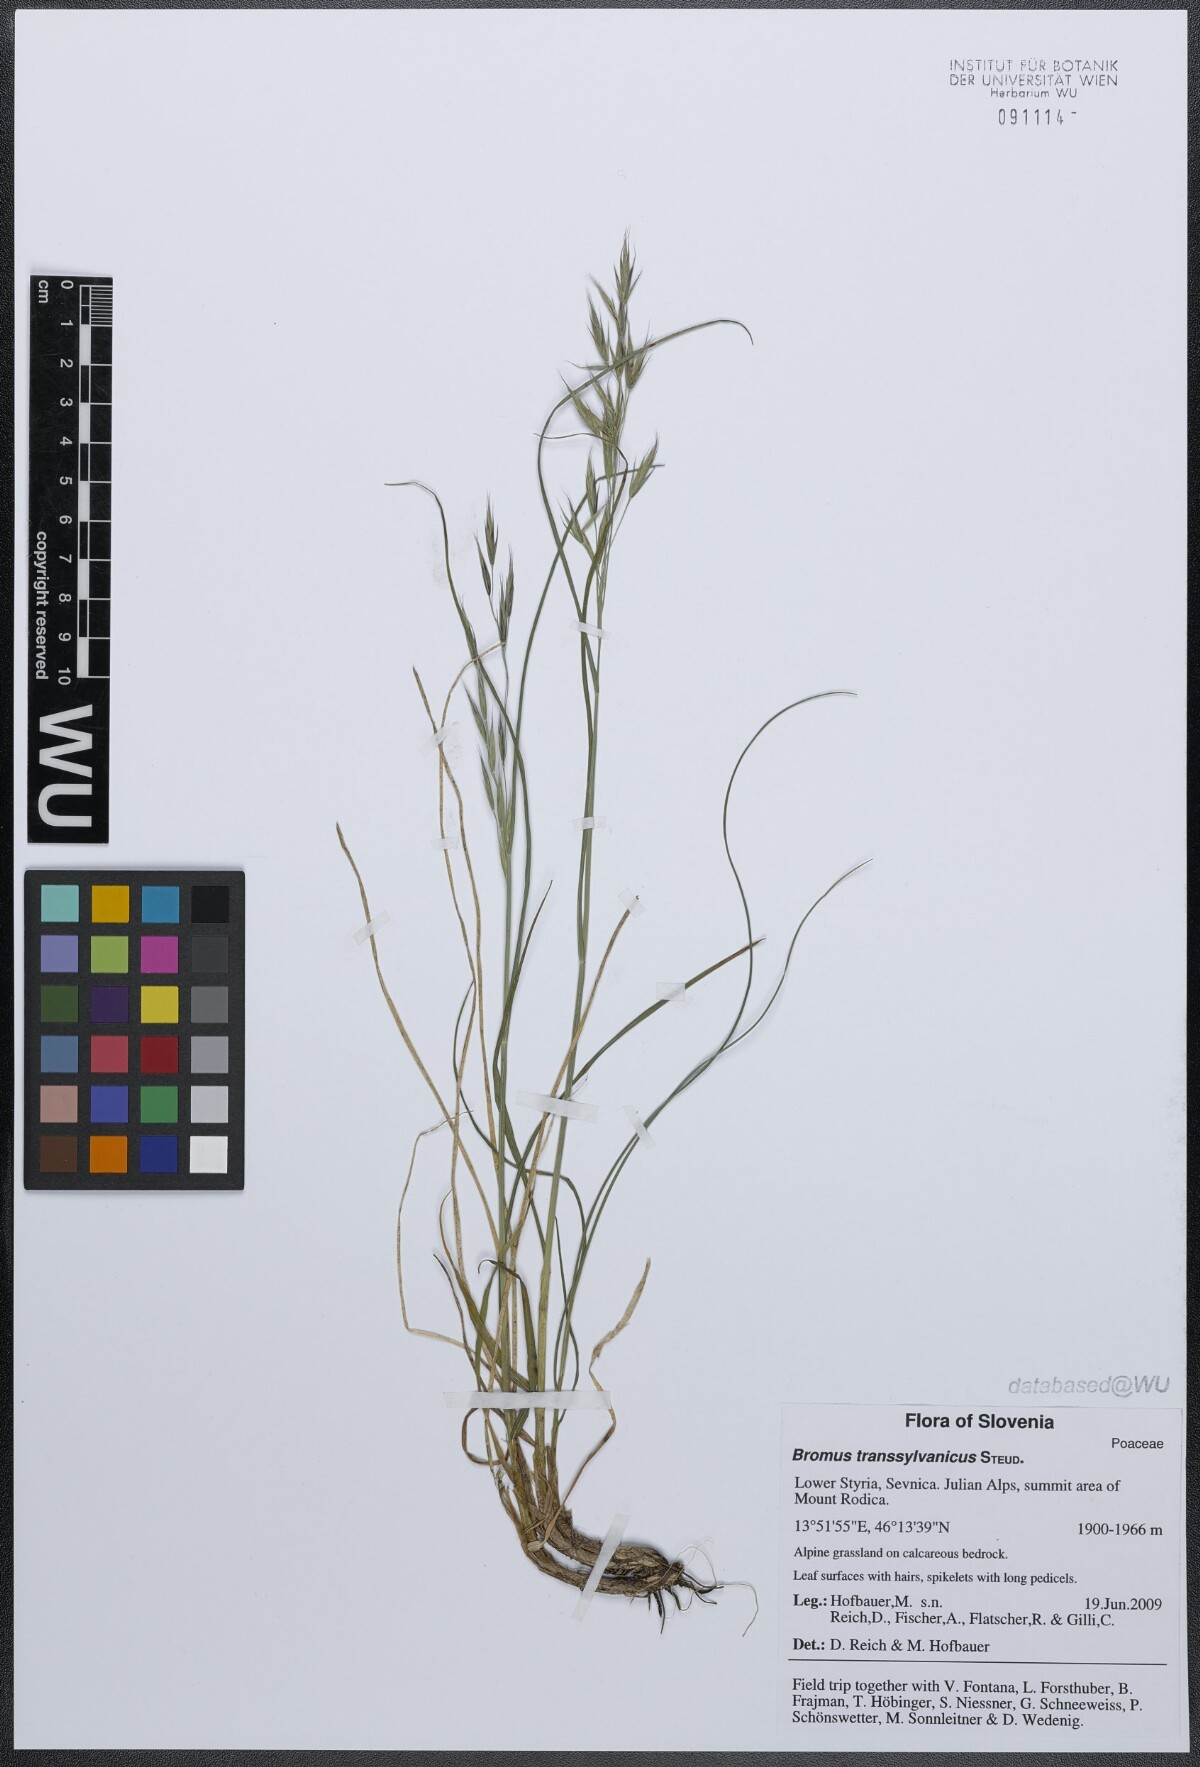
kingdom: Plantae
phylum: Tracheophyta
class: Liliopsida
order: Poales
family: Poaceae
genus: Bromus
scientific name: Bromus erectus
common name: Erect brome
